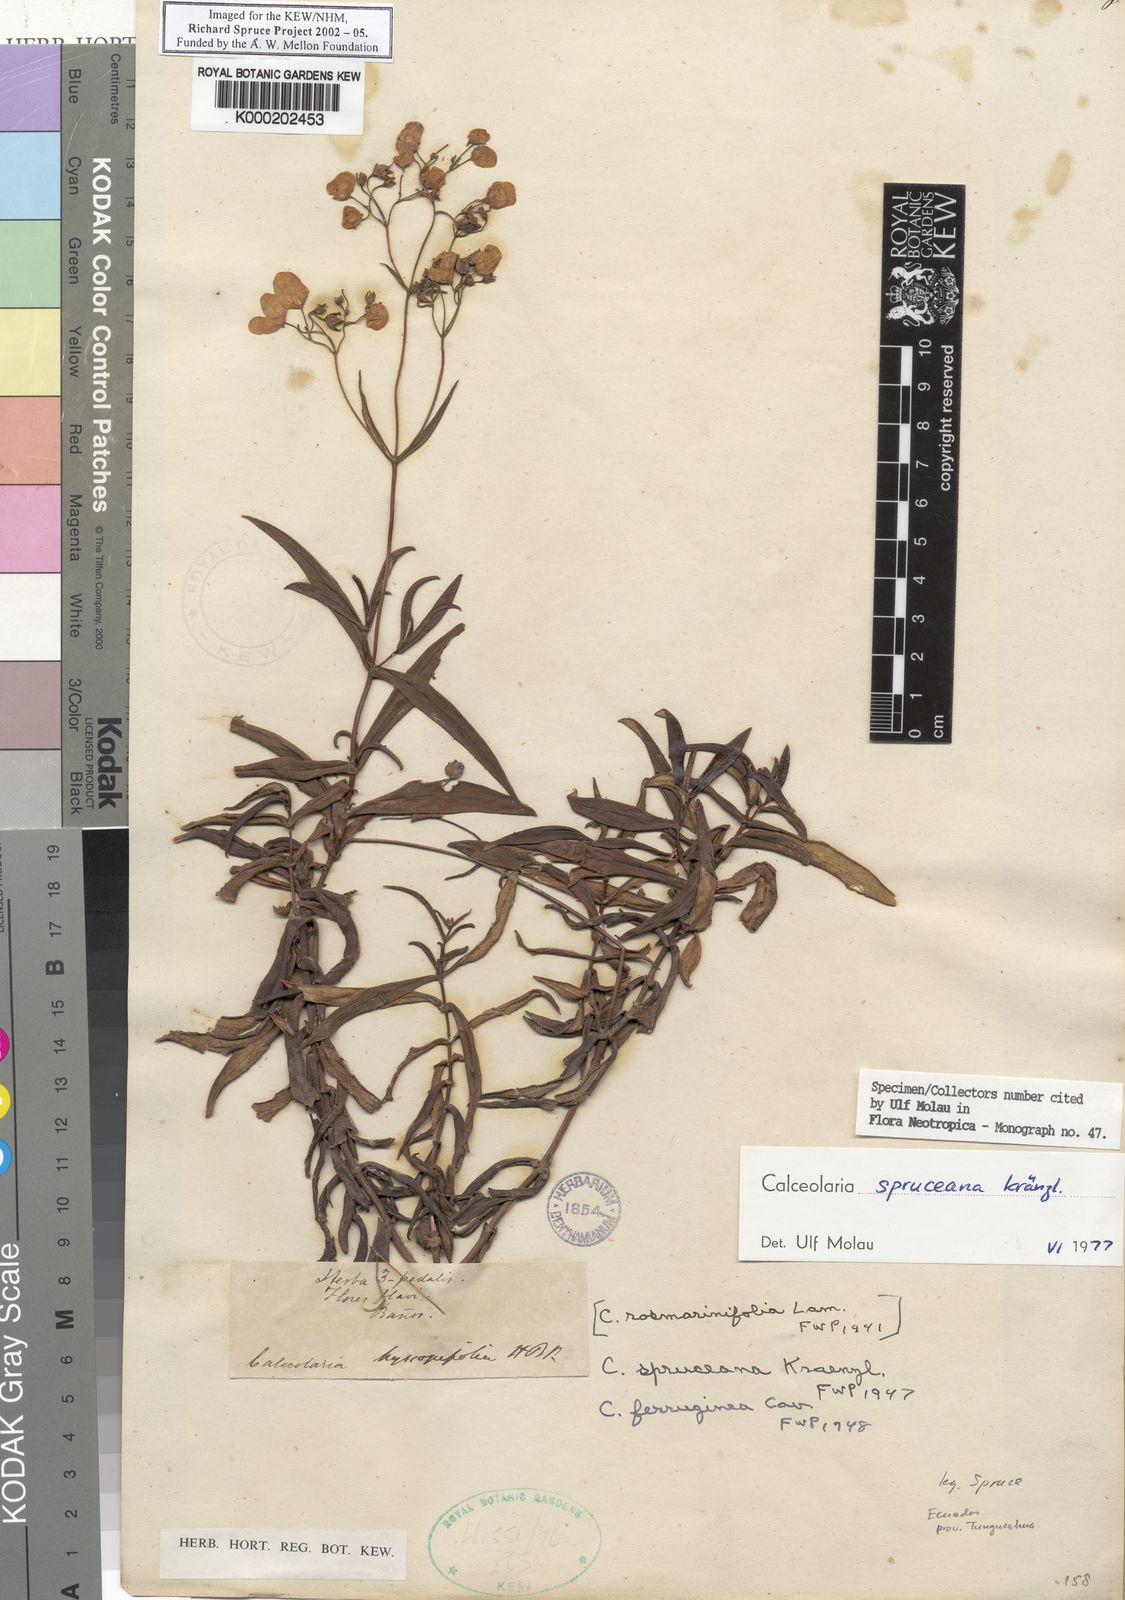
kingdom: Plantae
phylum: Tracheophyta
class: Magnoliopsida
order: Lamiales
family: Calceolariaceae
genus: Calceolaria
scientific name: Calceolaria spruceana
